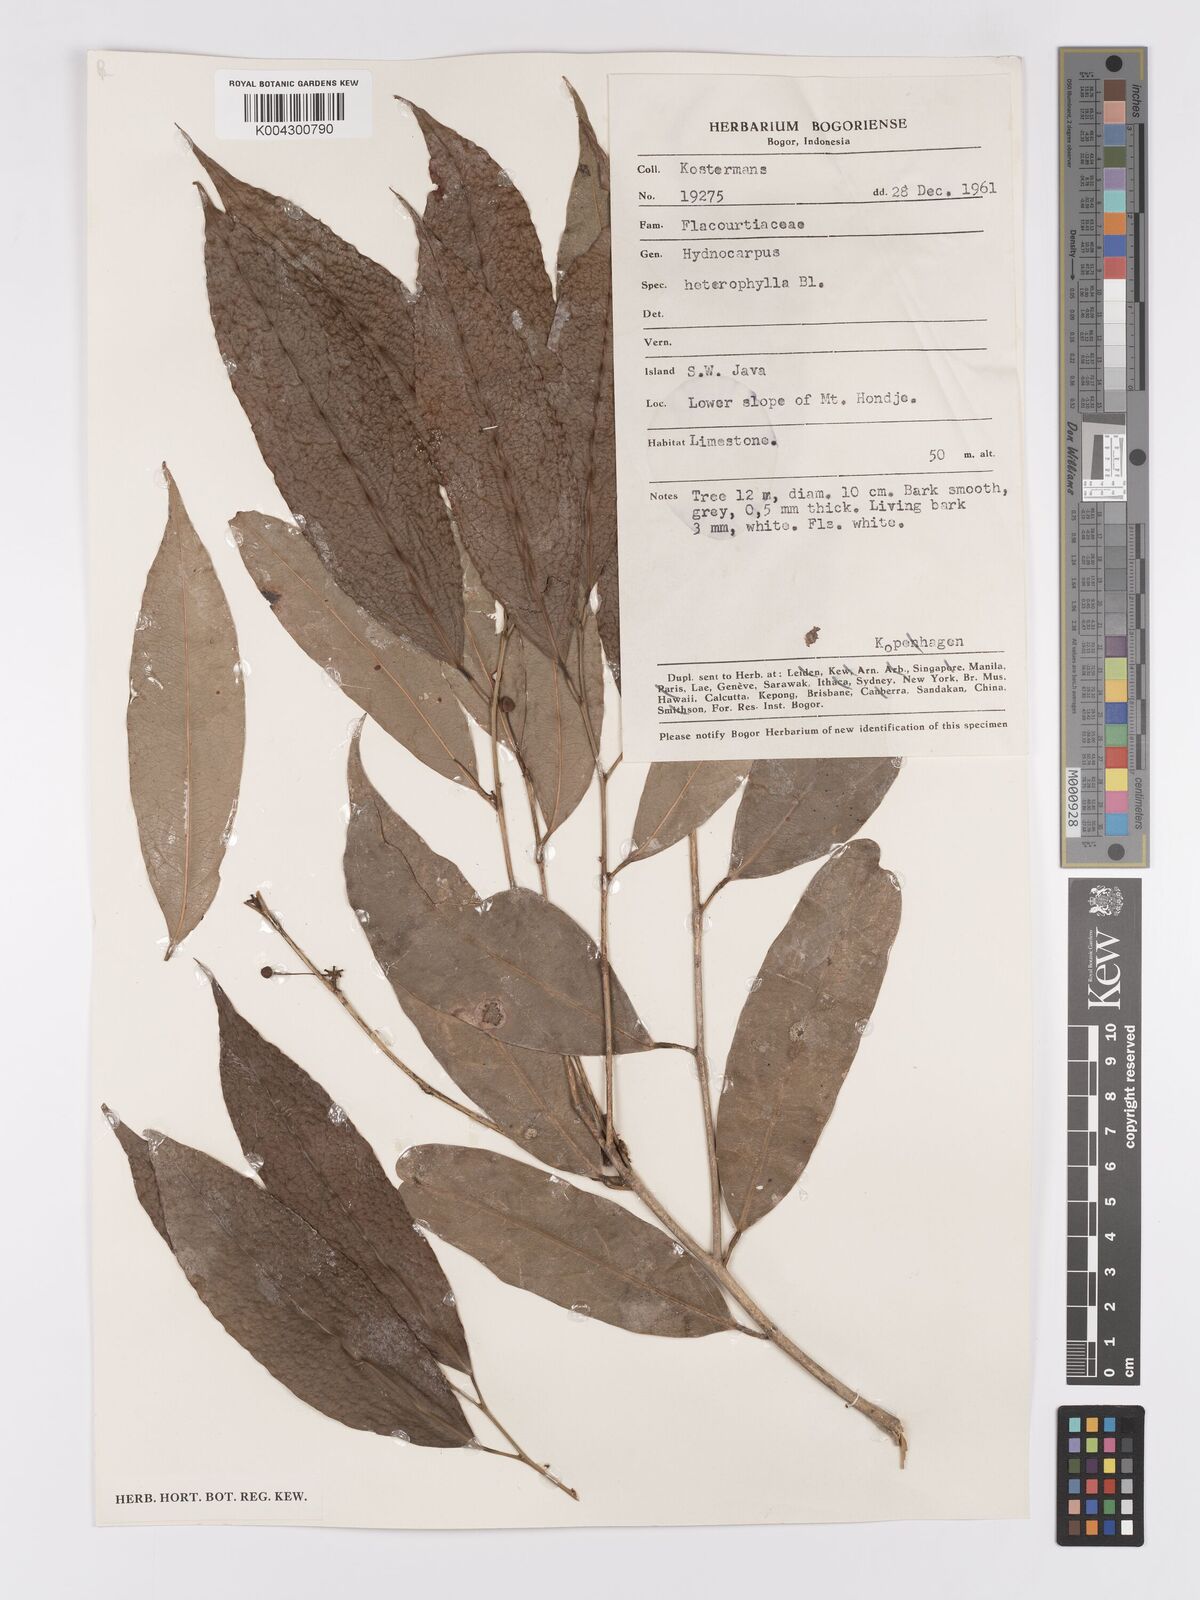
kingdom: Plantae
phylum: Tracheophyta
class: Magnoliopsida
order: Malpighiales
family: Achariaceae
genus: Hydnocarpus
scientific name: Hydnocarpus heterophyllus
